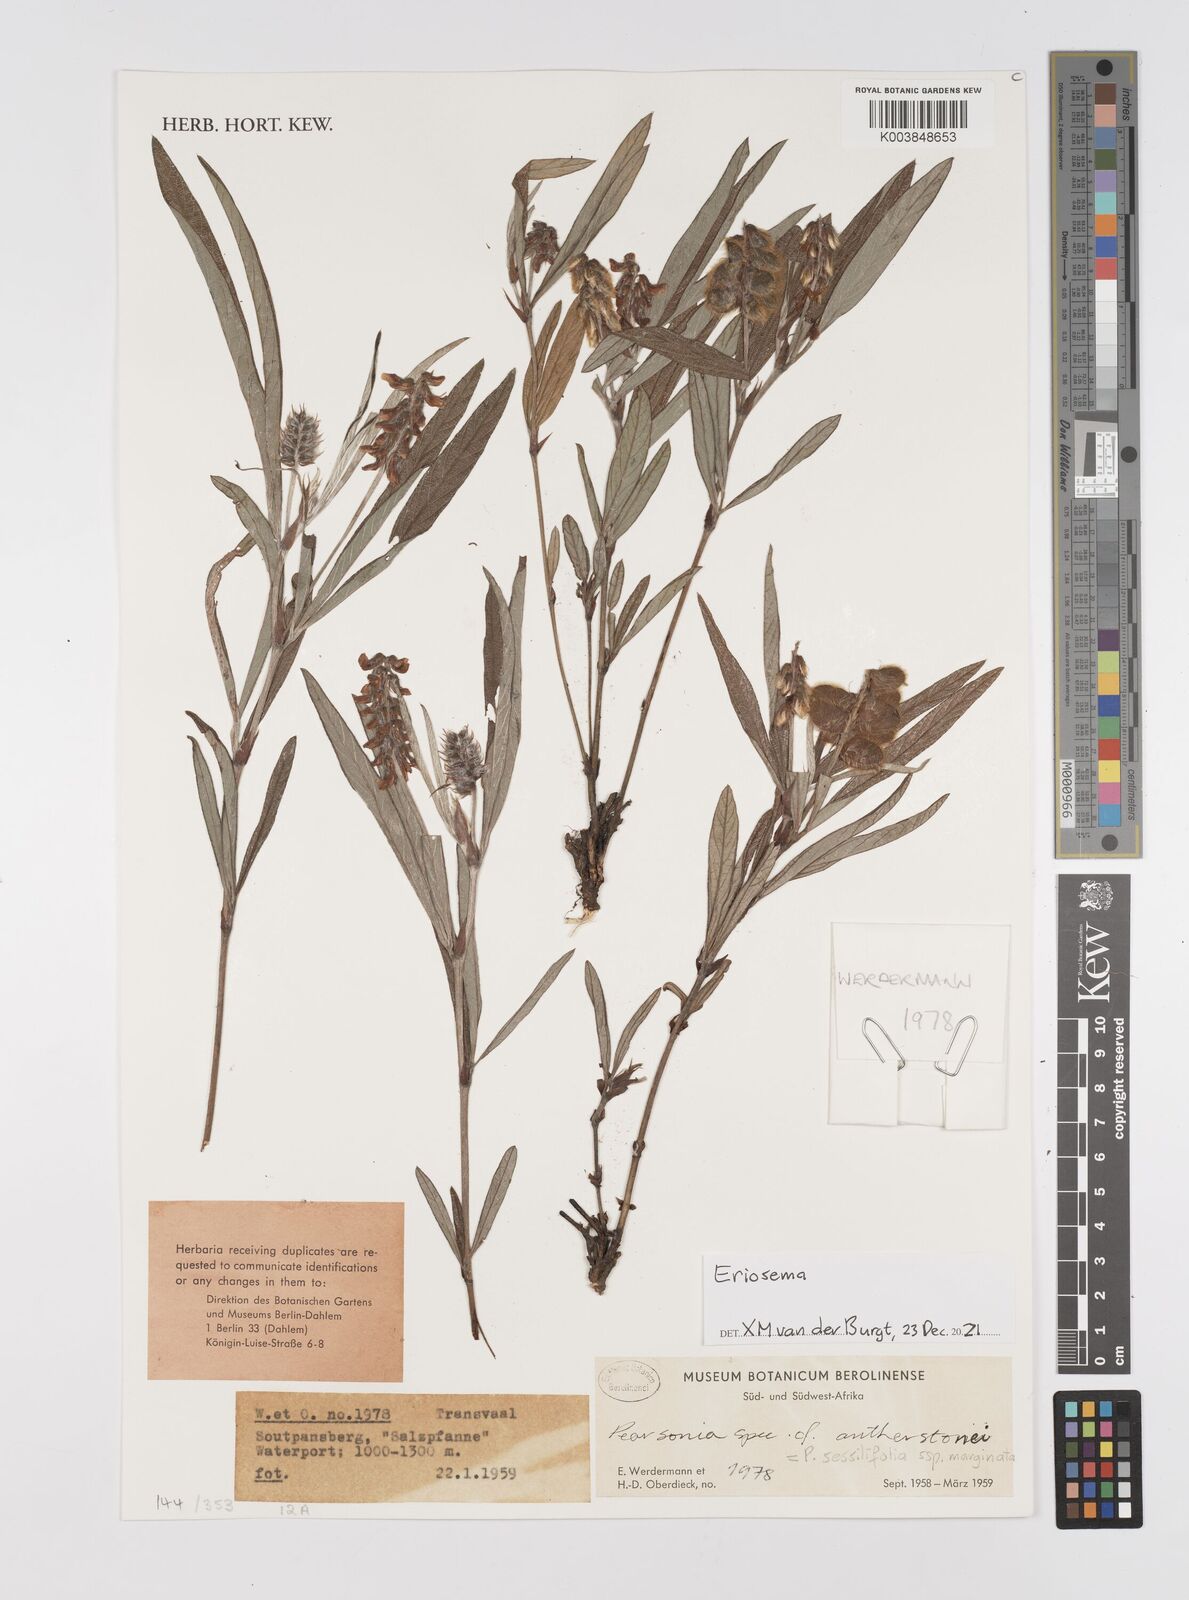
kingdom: Plantae
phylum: Tracheophyta
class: Magnoliopsida
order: Fabales
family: Fabaceae
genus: Eriosema
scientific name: Eriosema
